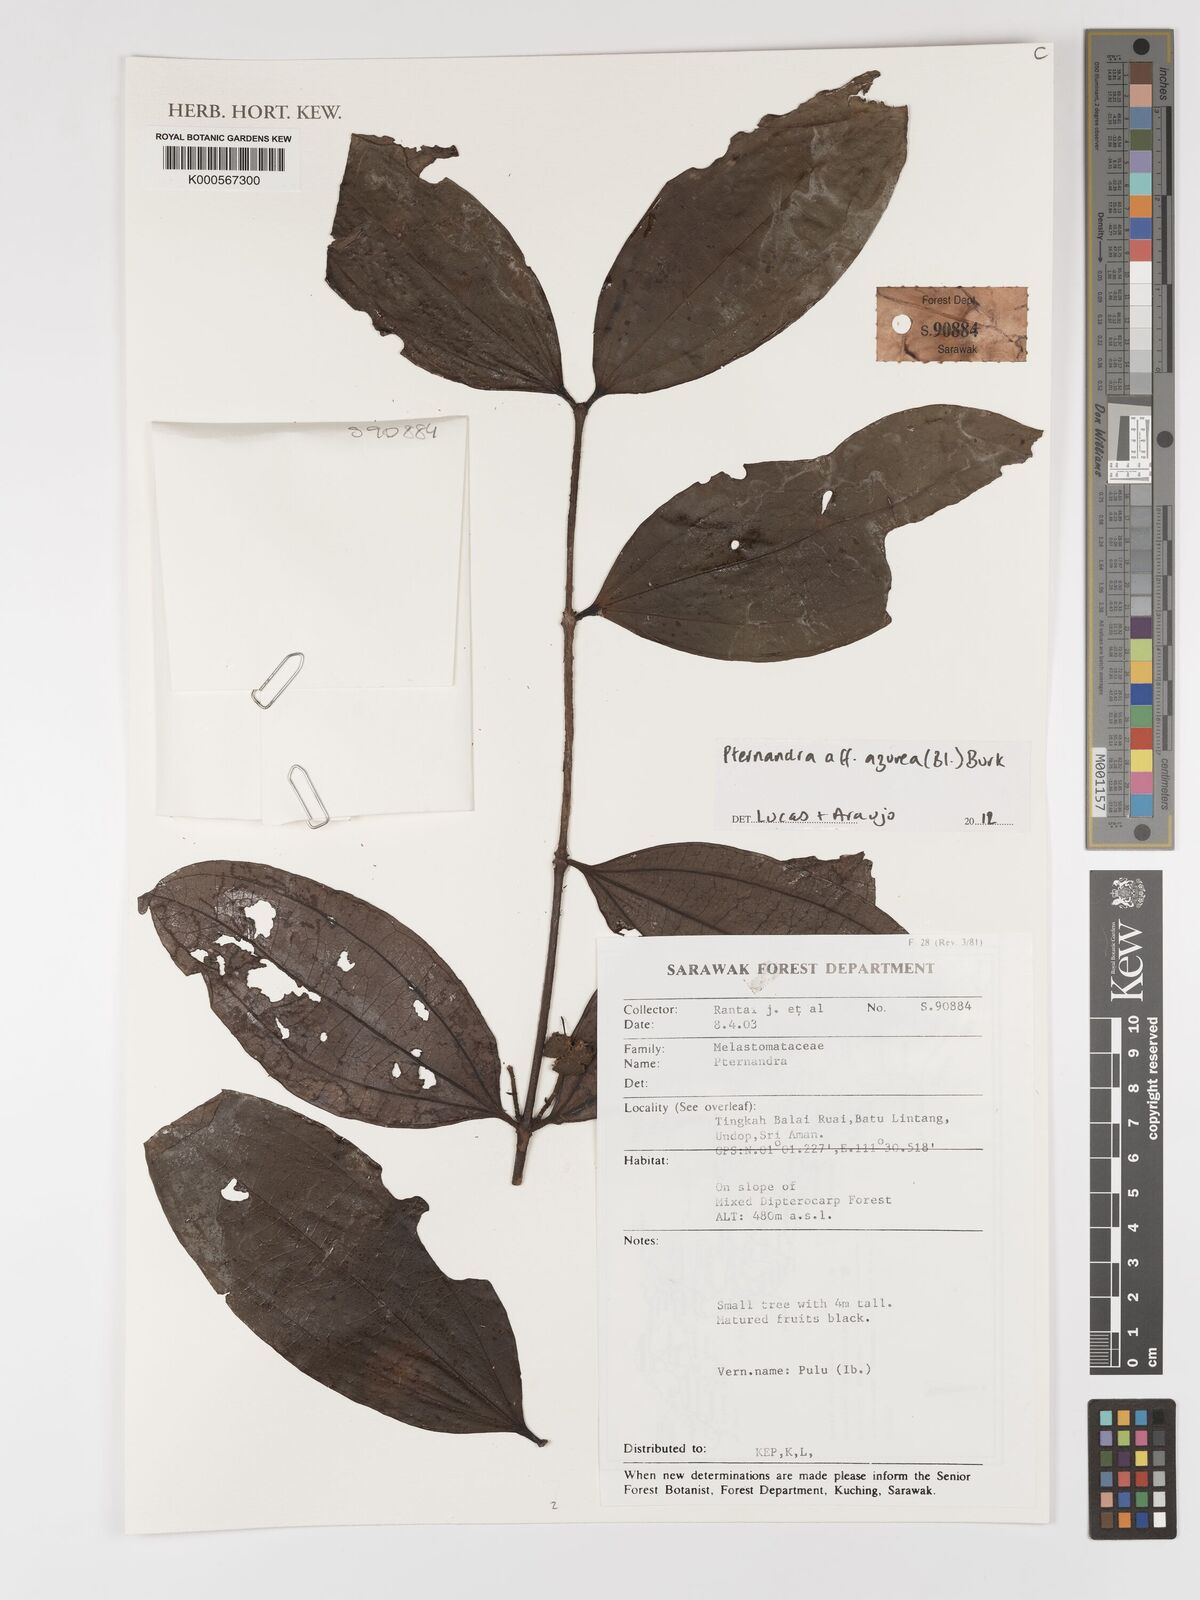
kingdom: Plantae
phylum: Tracheophyta
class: Magnoliopsida
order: Myrtales
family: Melastomataceae
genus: Pternandra
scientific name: Pternandra azurea
